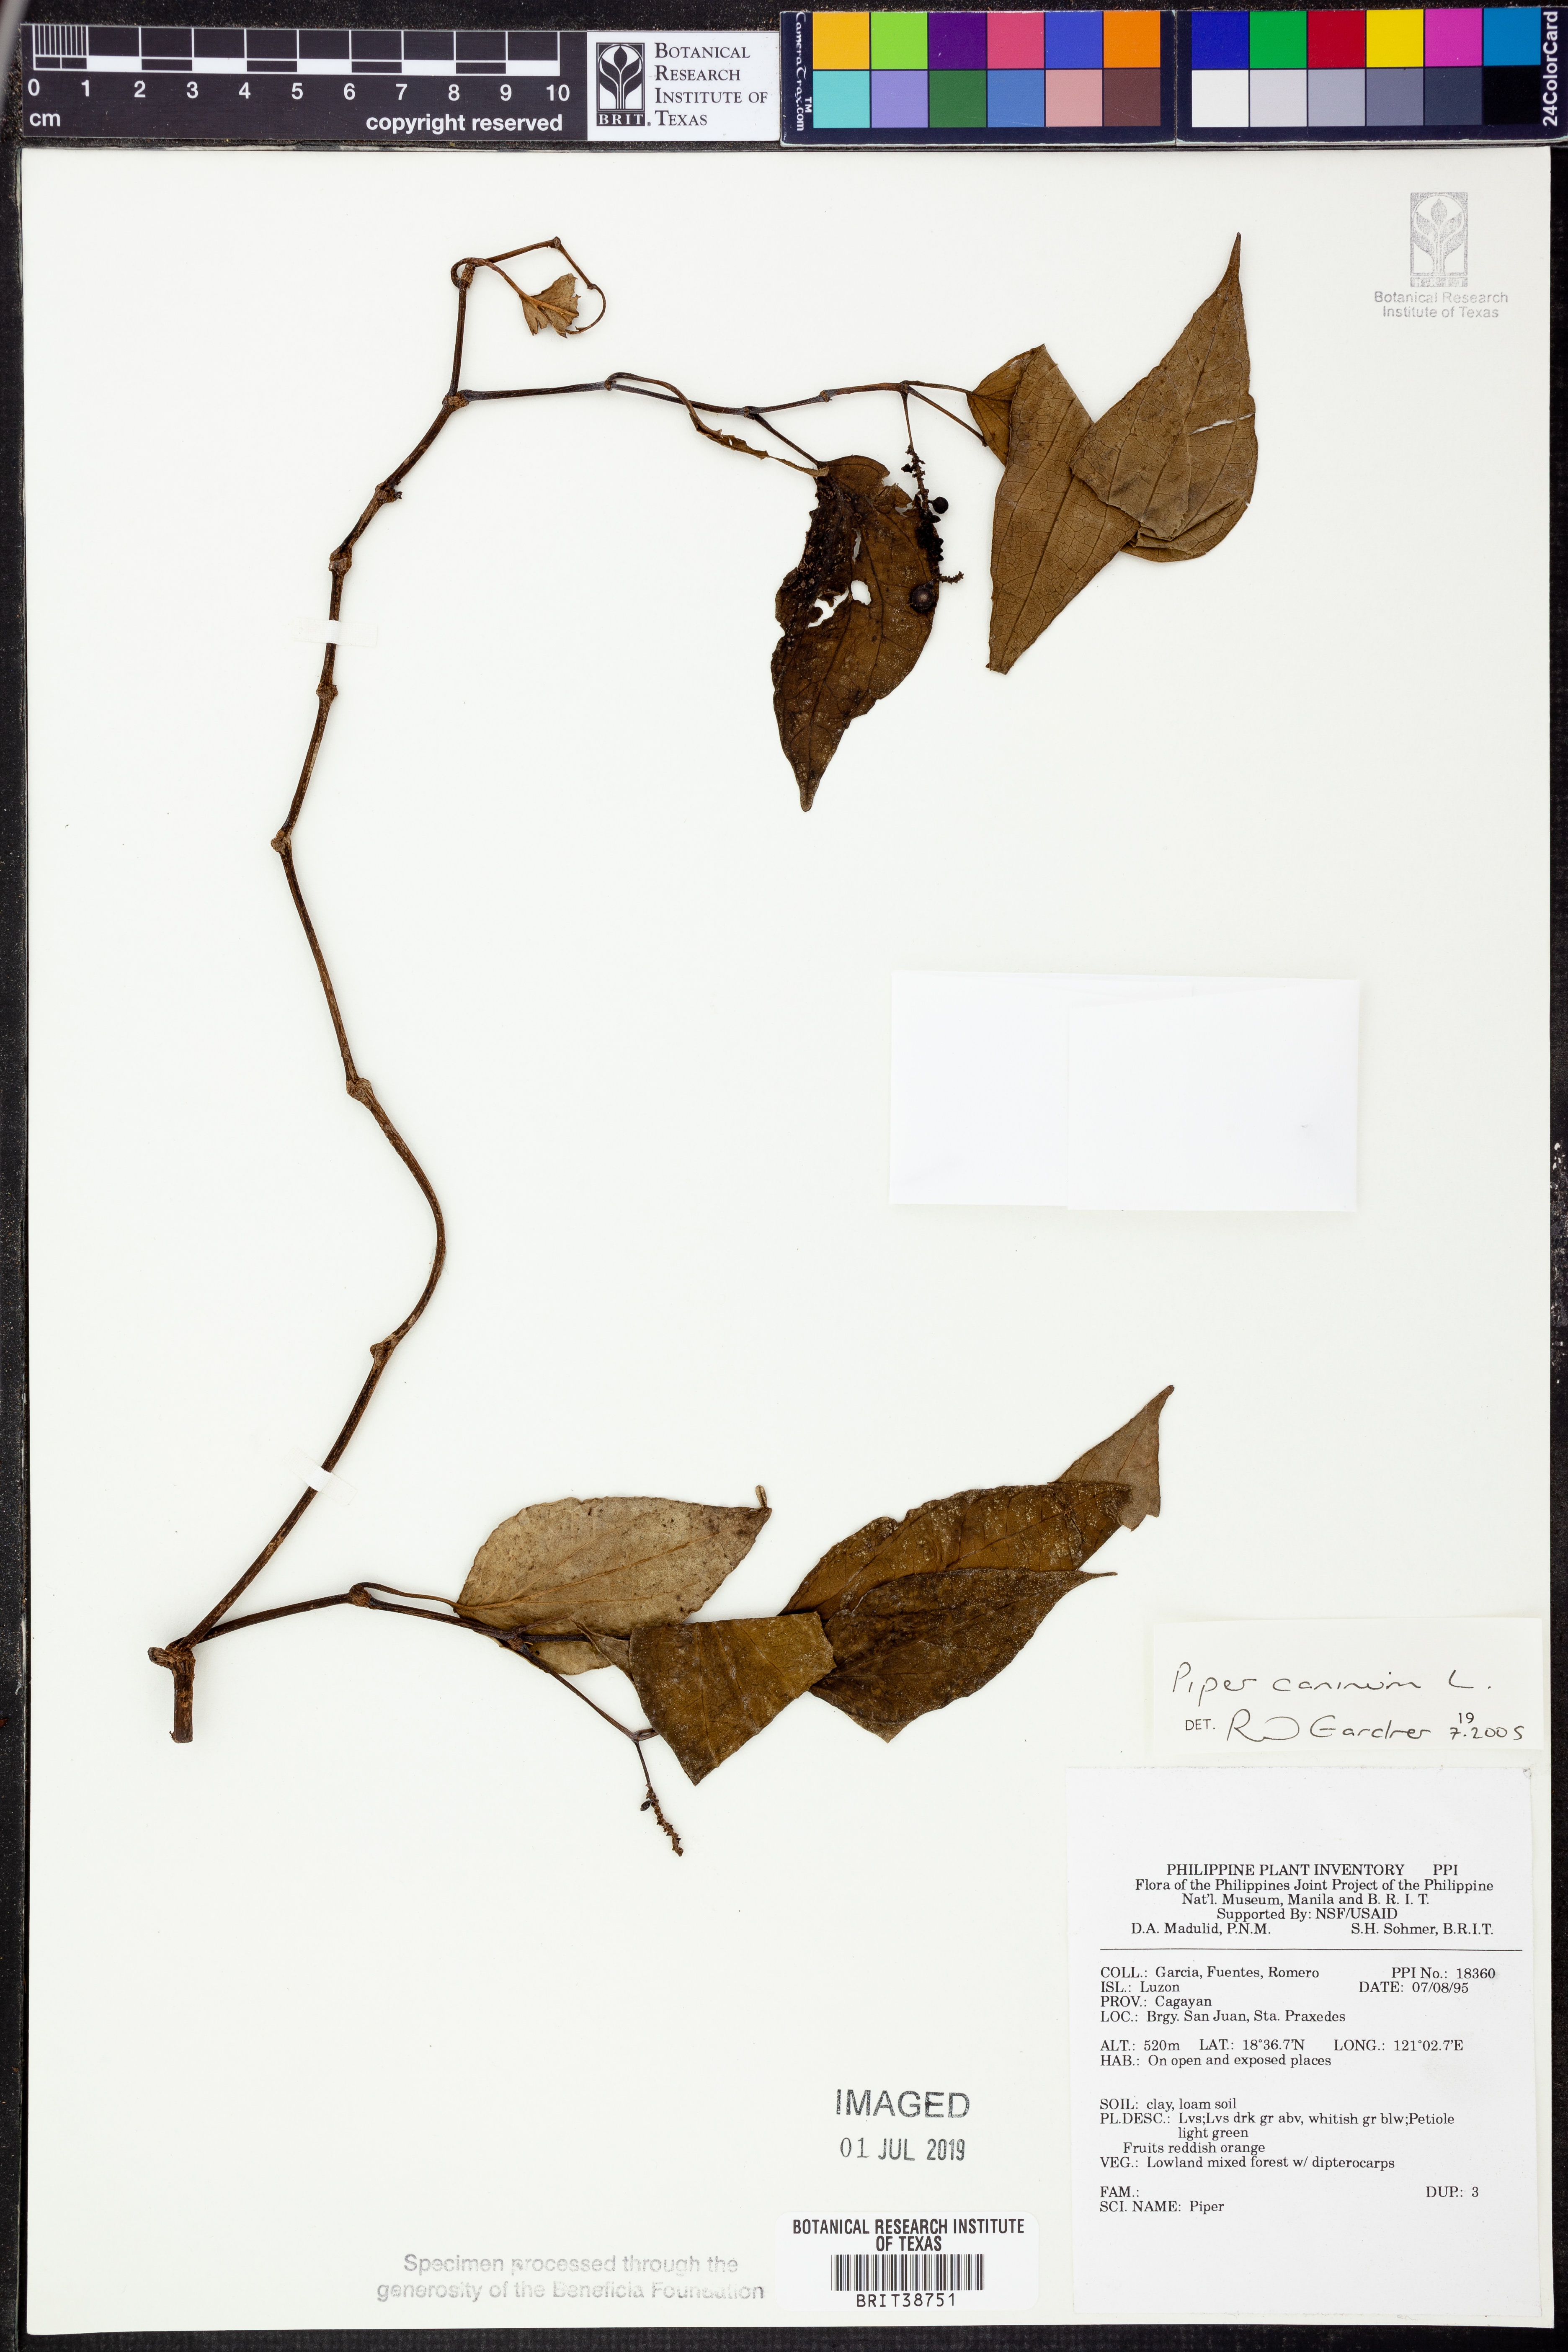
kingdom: Plantae
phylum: Tracheophyta
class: Magnoliopsida
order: Piperales
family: Piperaceae
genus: Piper
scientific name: Piper lanatum
